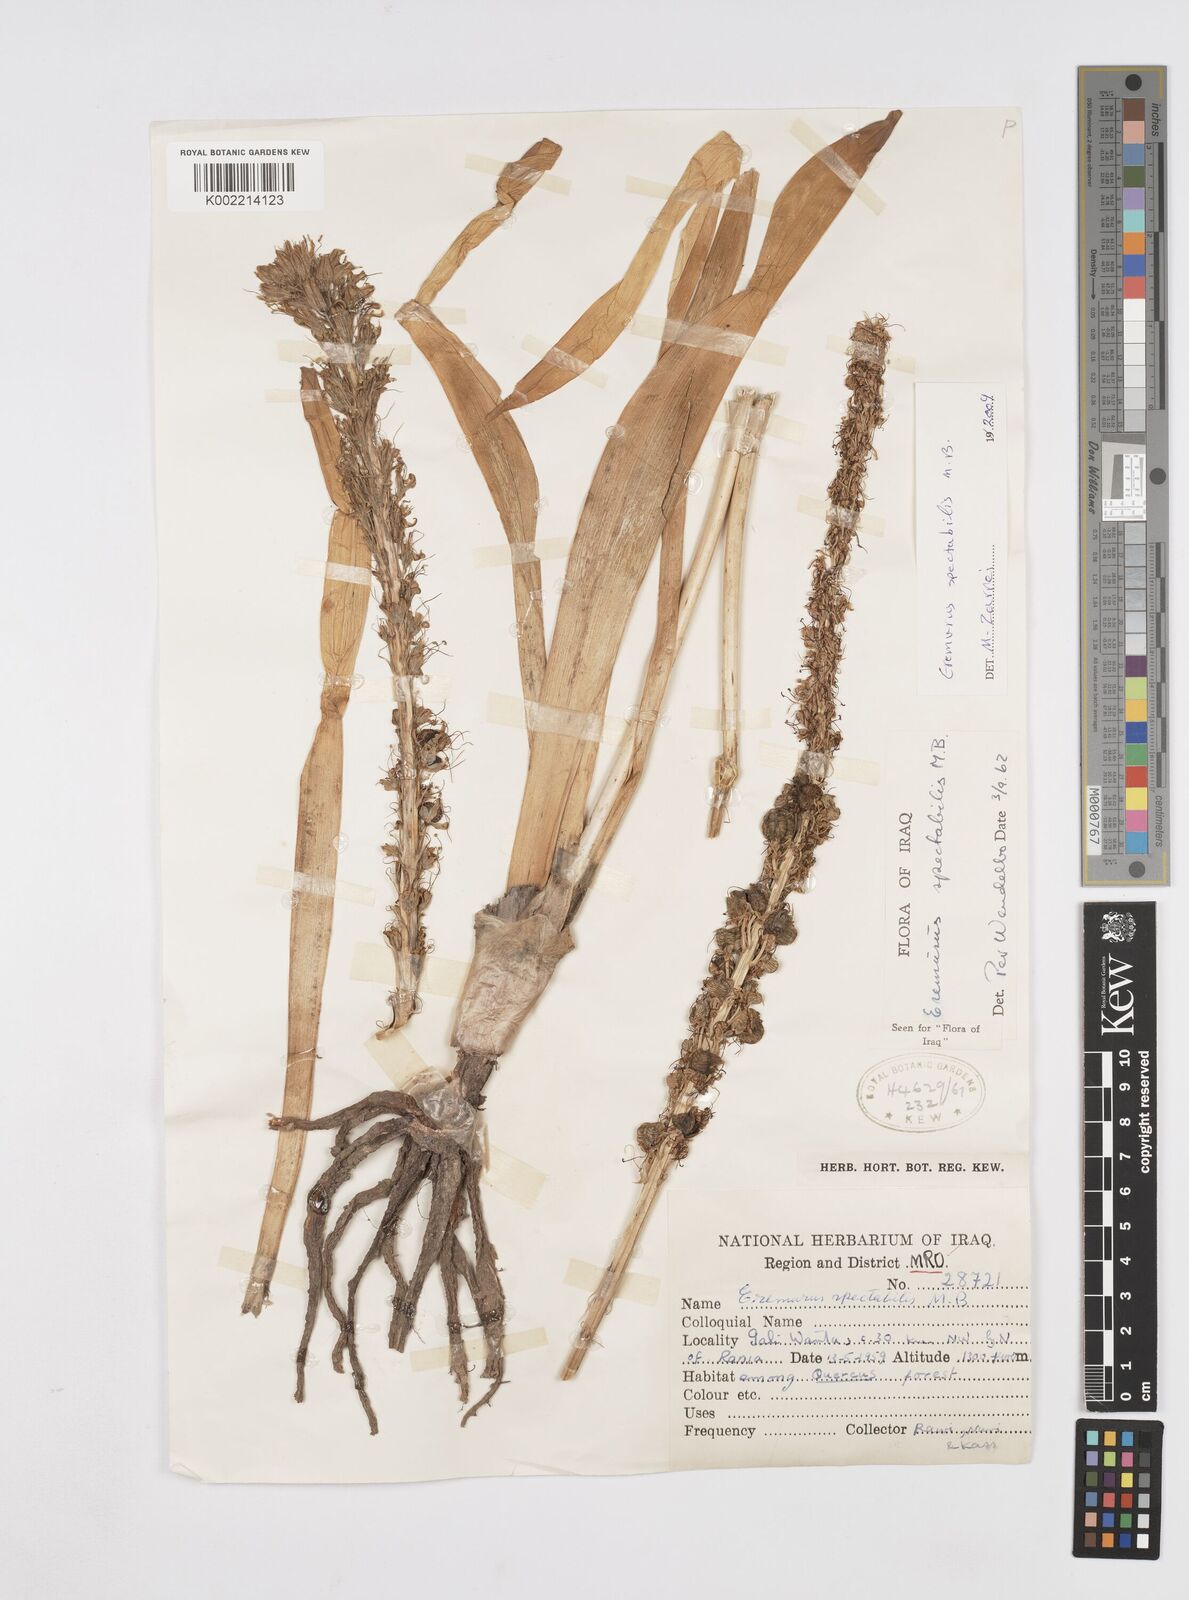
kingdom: Plantae
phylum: Tracheophyta
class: Liliopsida
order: Asparagales
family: Asphodelaceae
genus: Eremurus
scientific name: Eremurus spectabilis
